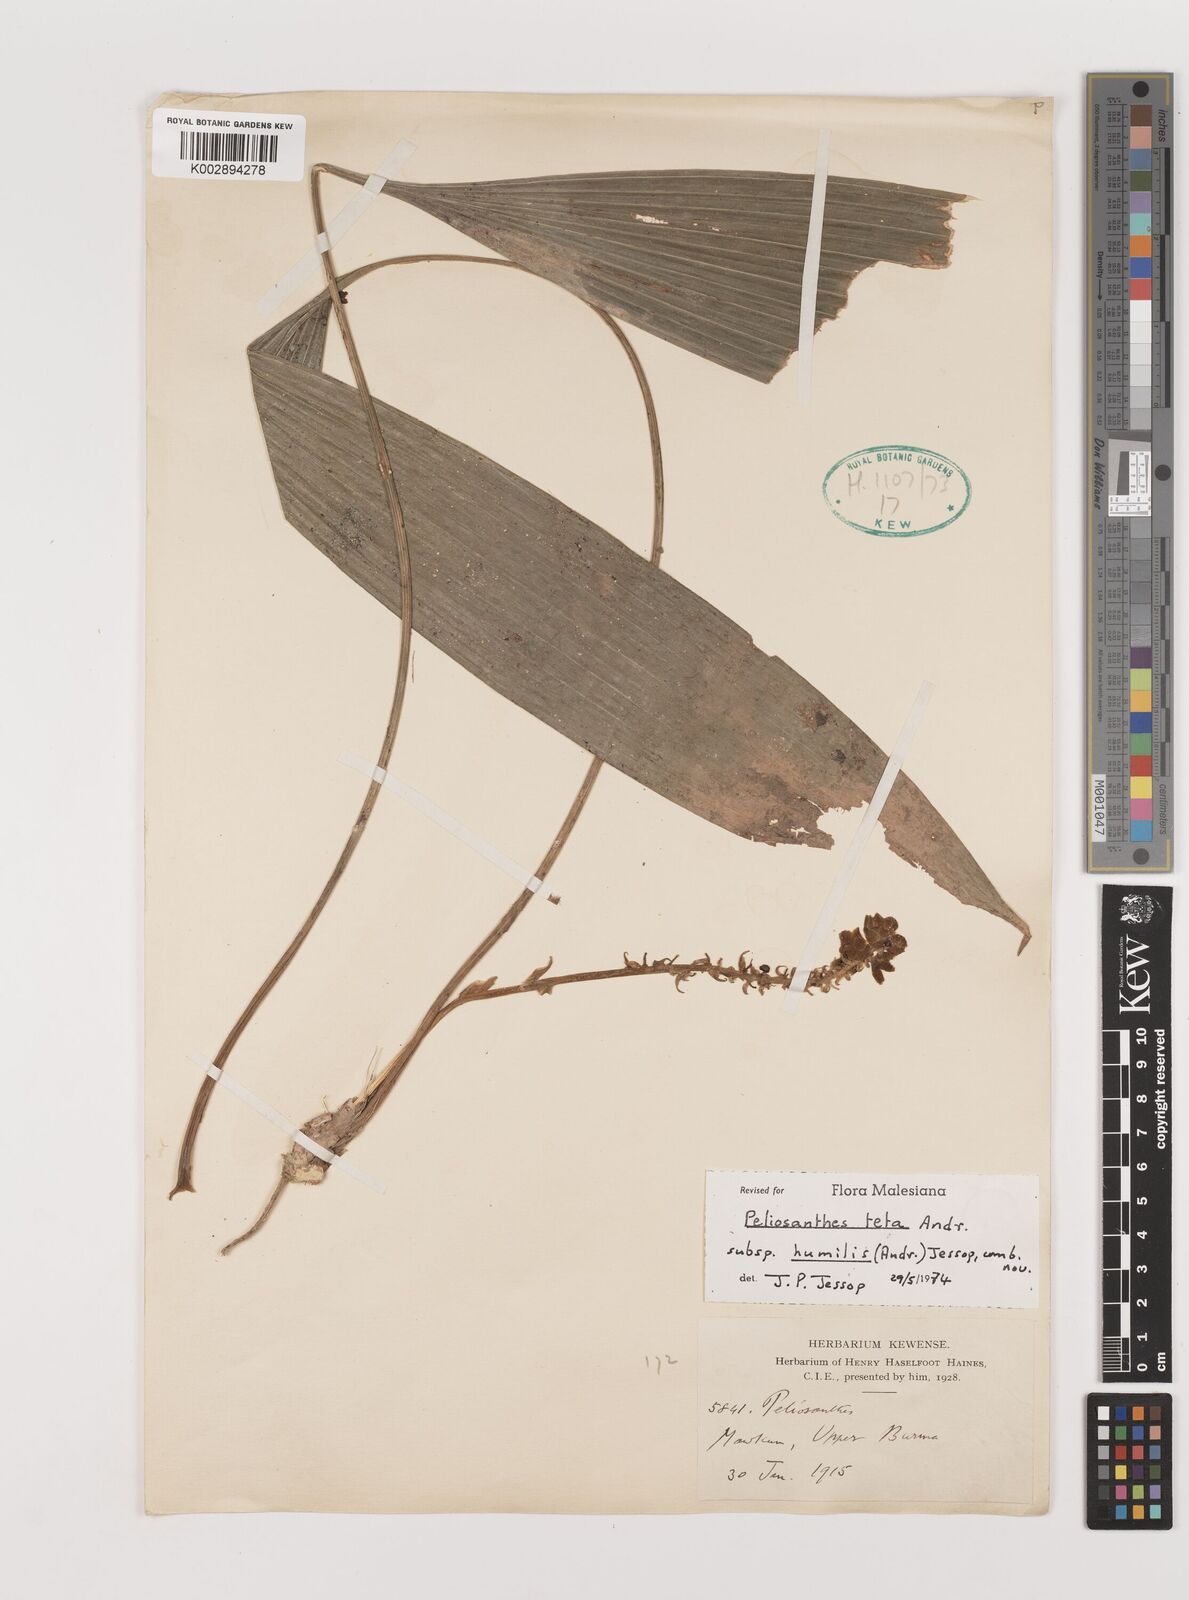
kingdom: Plantae
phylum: Tracheophyta
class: Liliopsida
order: Asparagales
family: Asparagaceae
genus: Peliosanthes
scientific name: Peliosanthes teta
